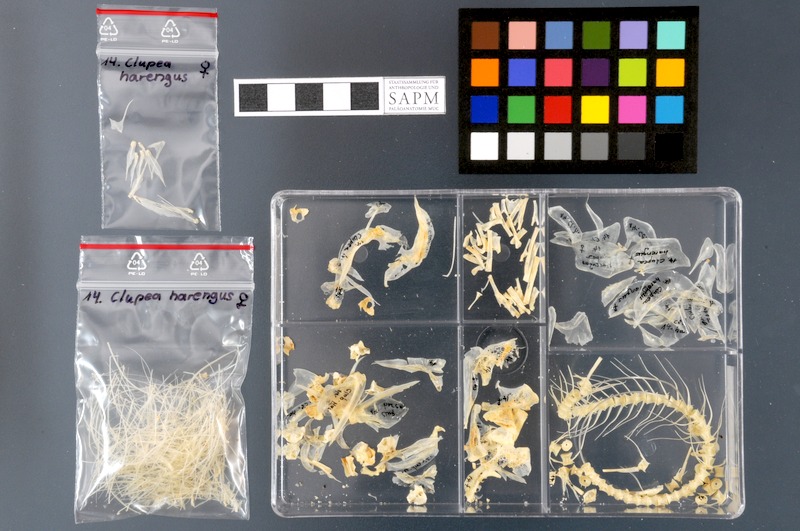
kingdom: Animalia
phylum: Chordata
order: Clupeiformes
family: Clupeidae
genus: Clupea
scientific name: Clupea harengus
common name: Herring
